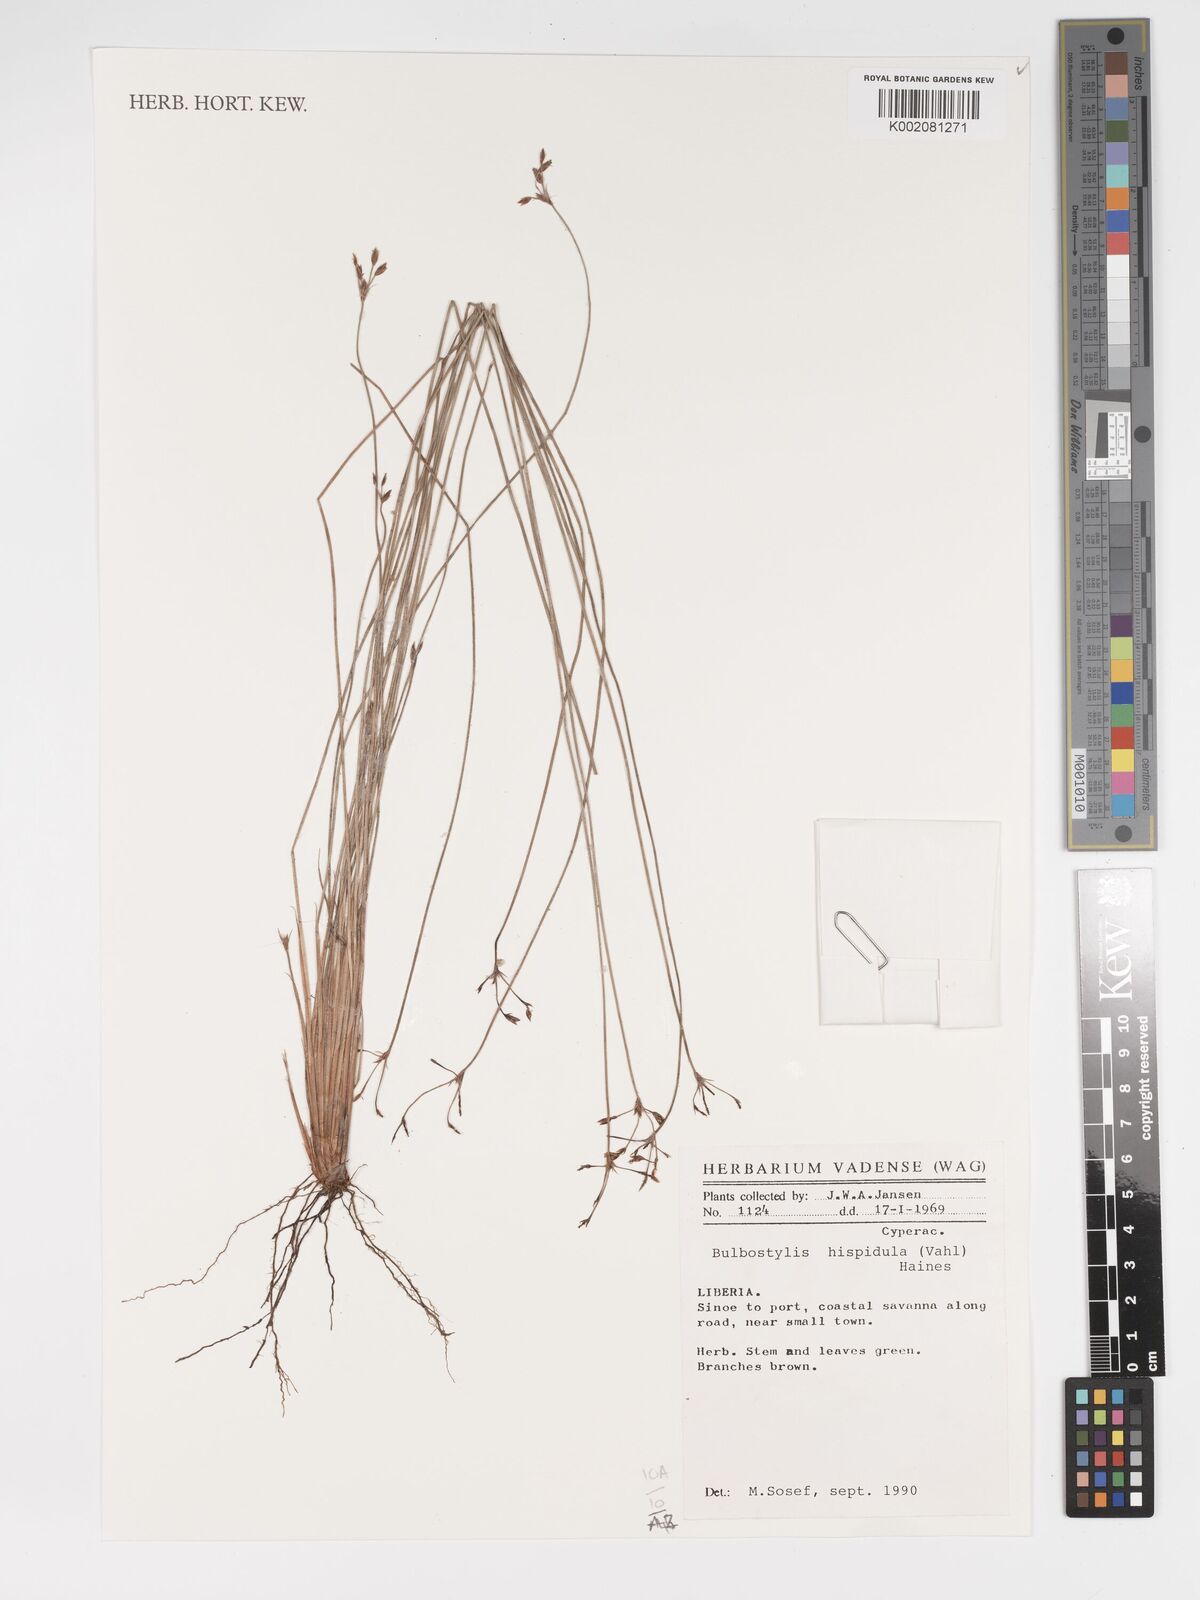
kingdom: Plantae
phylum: Tracheophyta
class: Liliopsida
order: Poales
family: Cyperaceae
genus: Bulbostylis
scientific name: Bulbostylis hispidula
